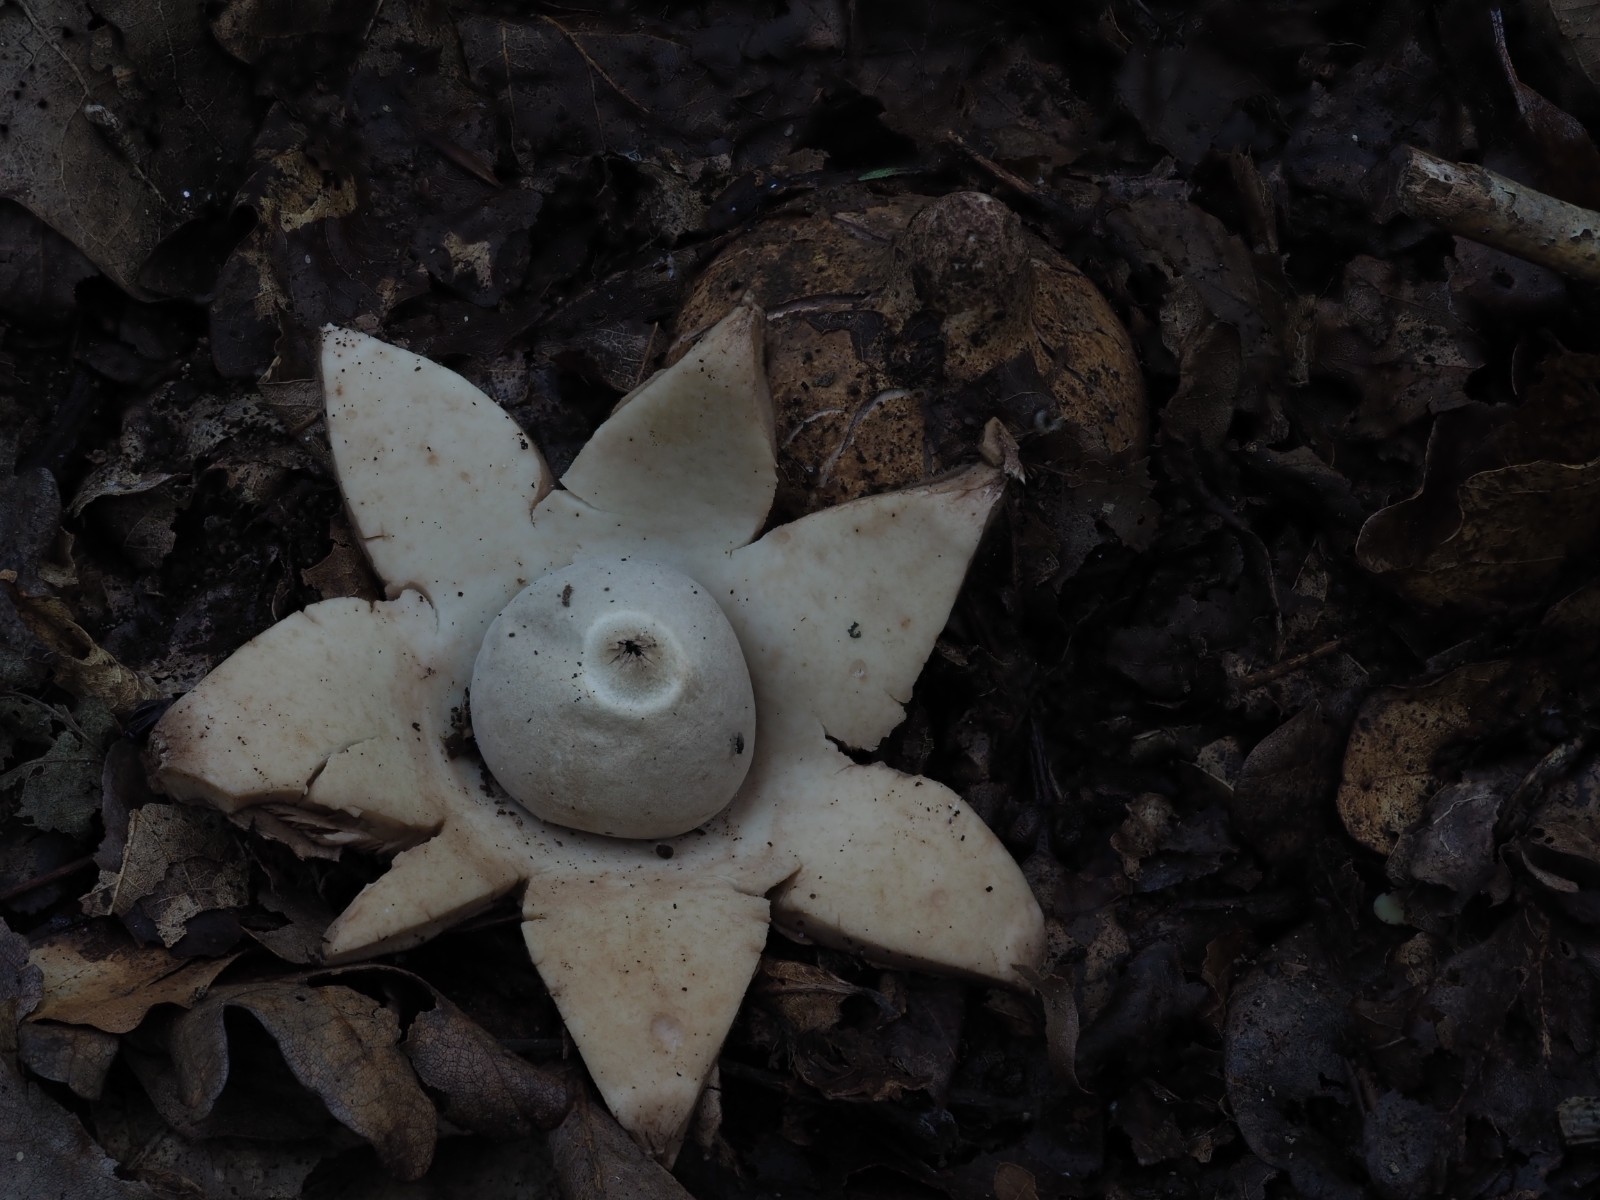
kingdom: Fungi
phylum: Basidiomycota
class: Agaricomycetes
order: Geastrales
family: Geastraceae
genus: Geastrum
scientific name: Geastrum michelianum
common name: kødet stjernebold
